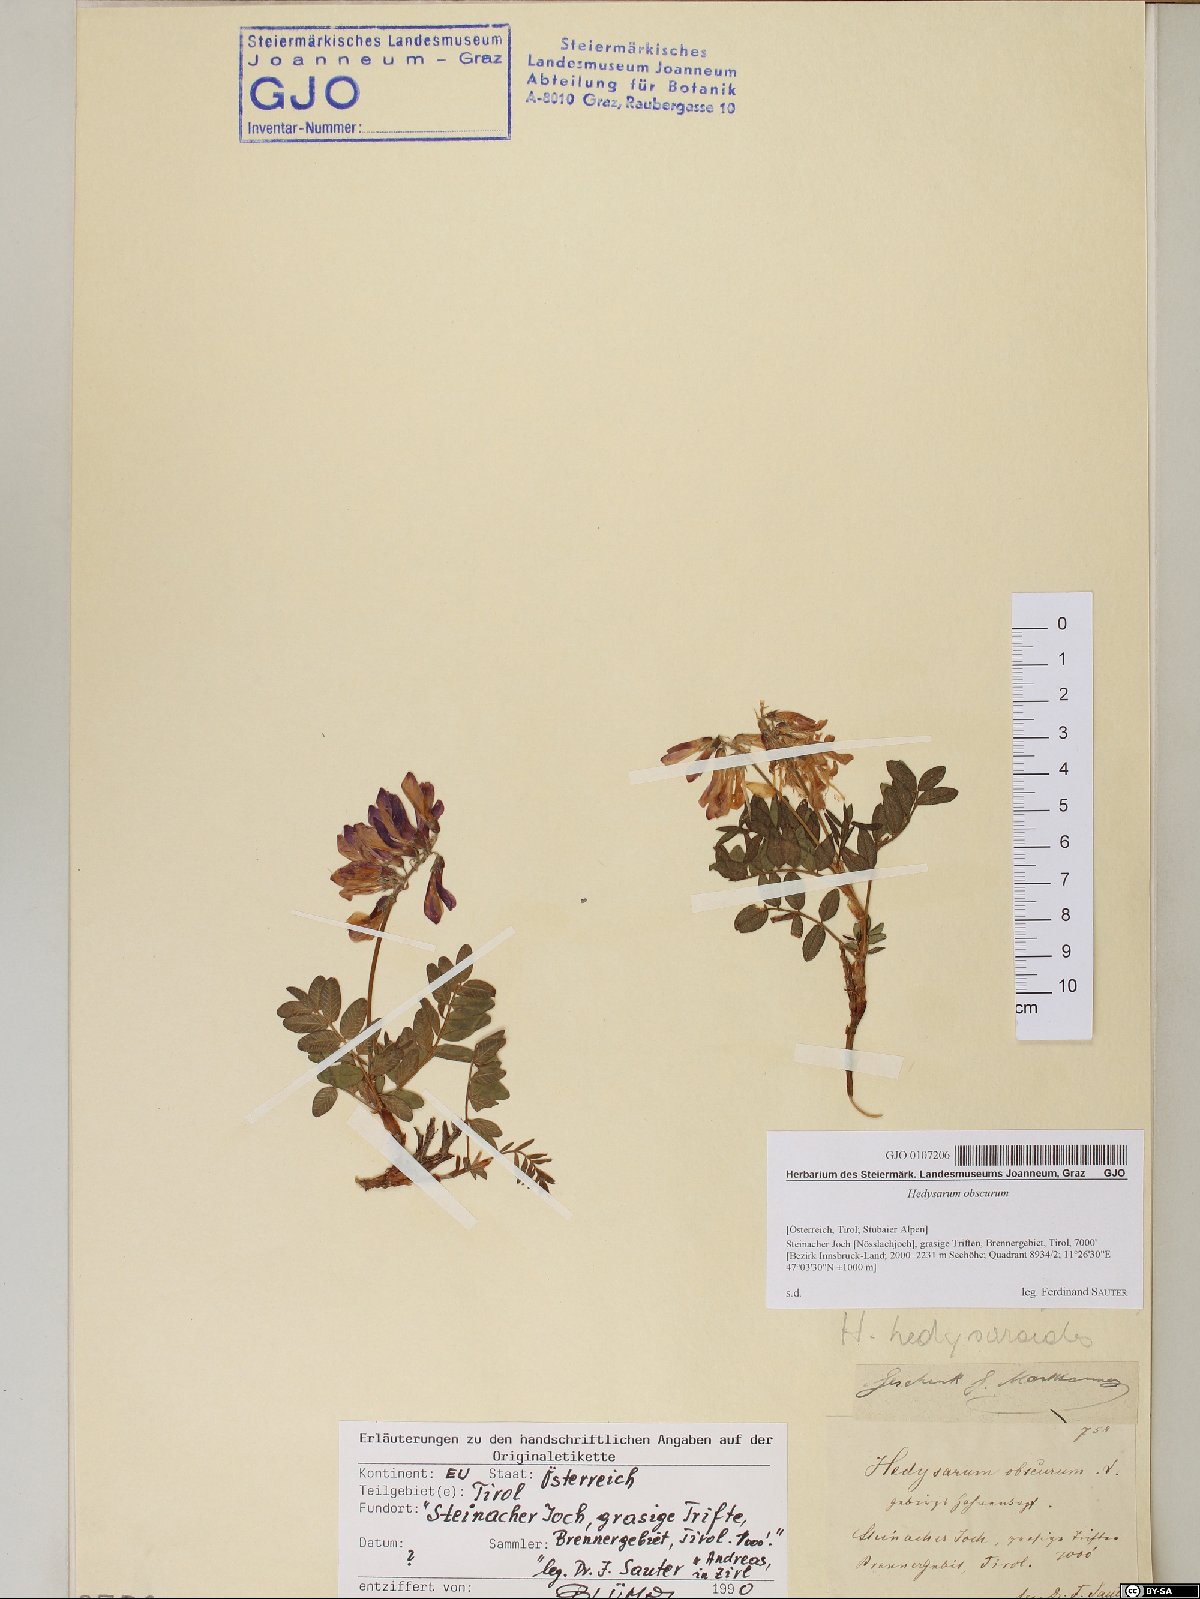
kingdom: Plantae
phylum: Tracheophyta
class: Magnoliopsida
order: Fabales
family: Fabaceae
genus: Hedysarum
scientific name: Hedysarum hedysaroides
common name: Alpine french-honeysuckle
